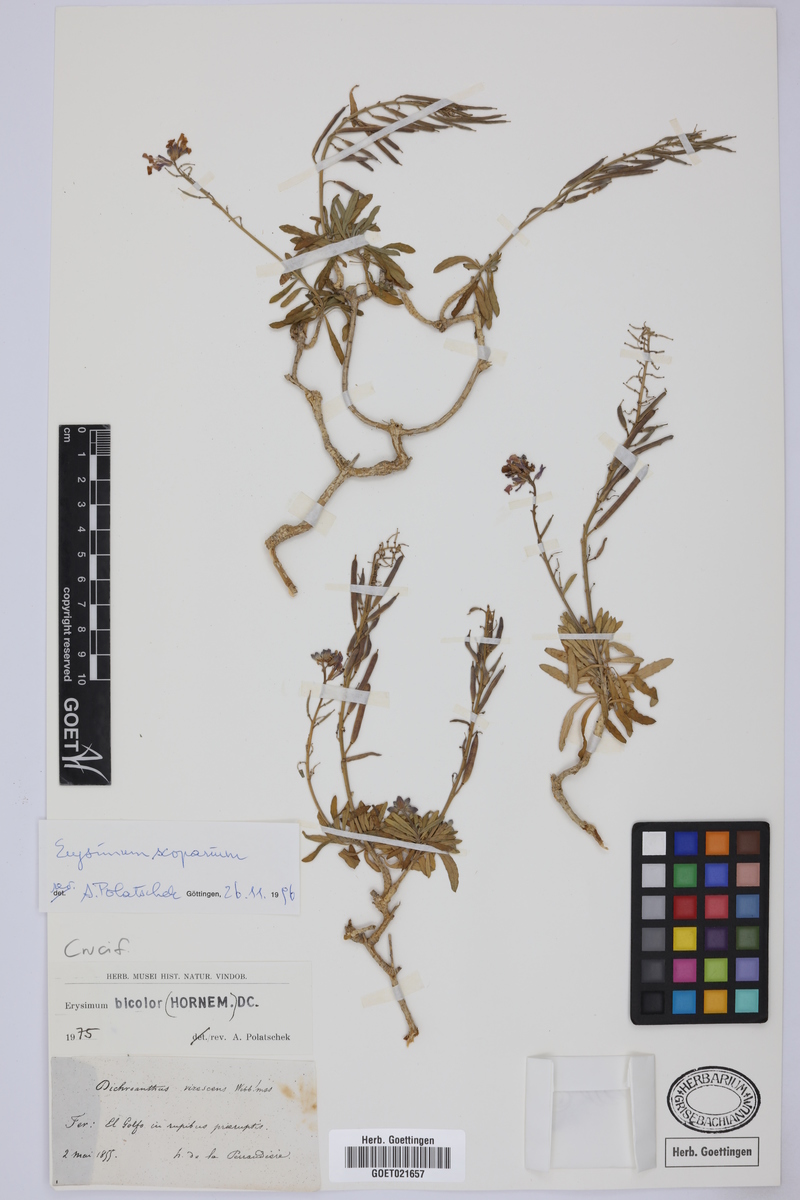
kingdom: Plantae
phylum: Tracheophyta
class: Magnoliopsida
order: Brassicales
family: Brassicaceae
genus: Erysimum
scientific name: Erysimum scoparium
